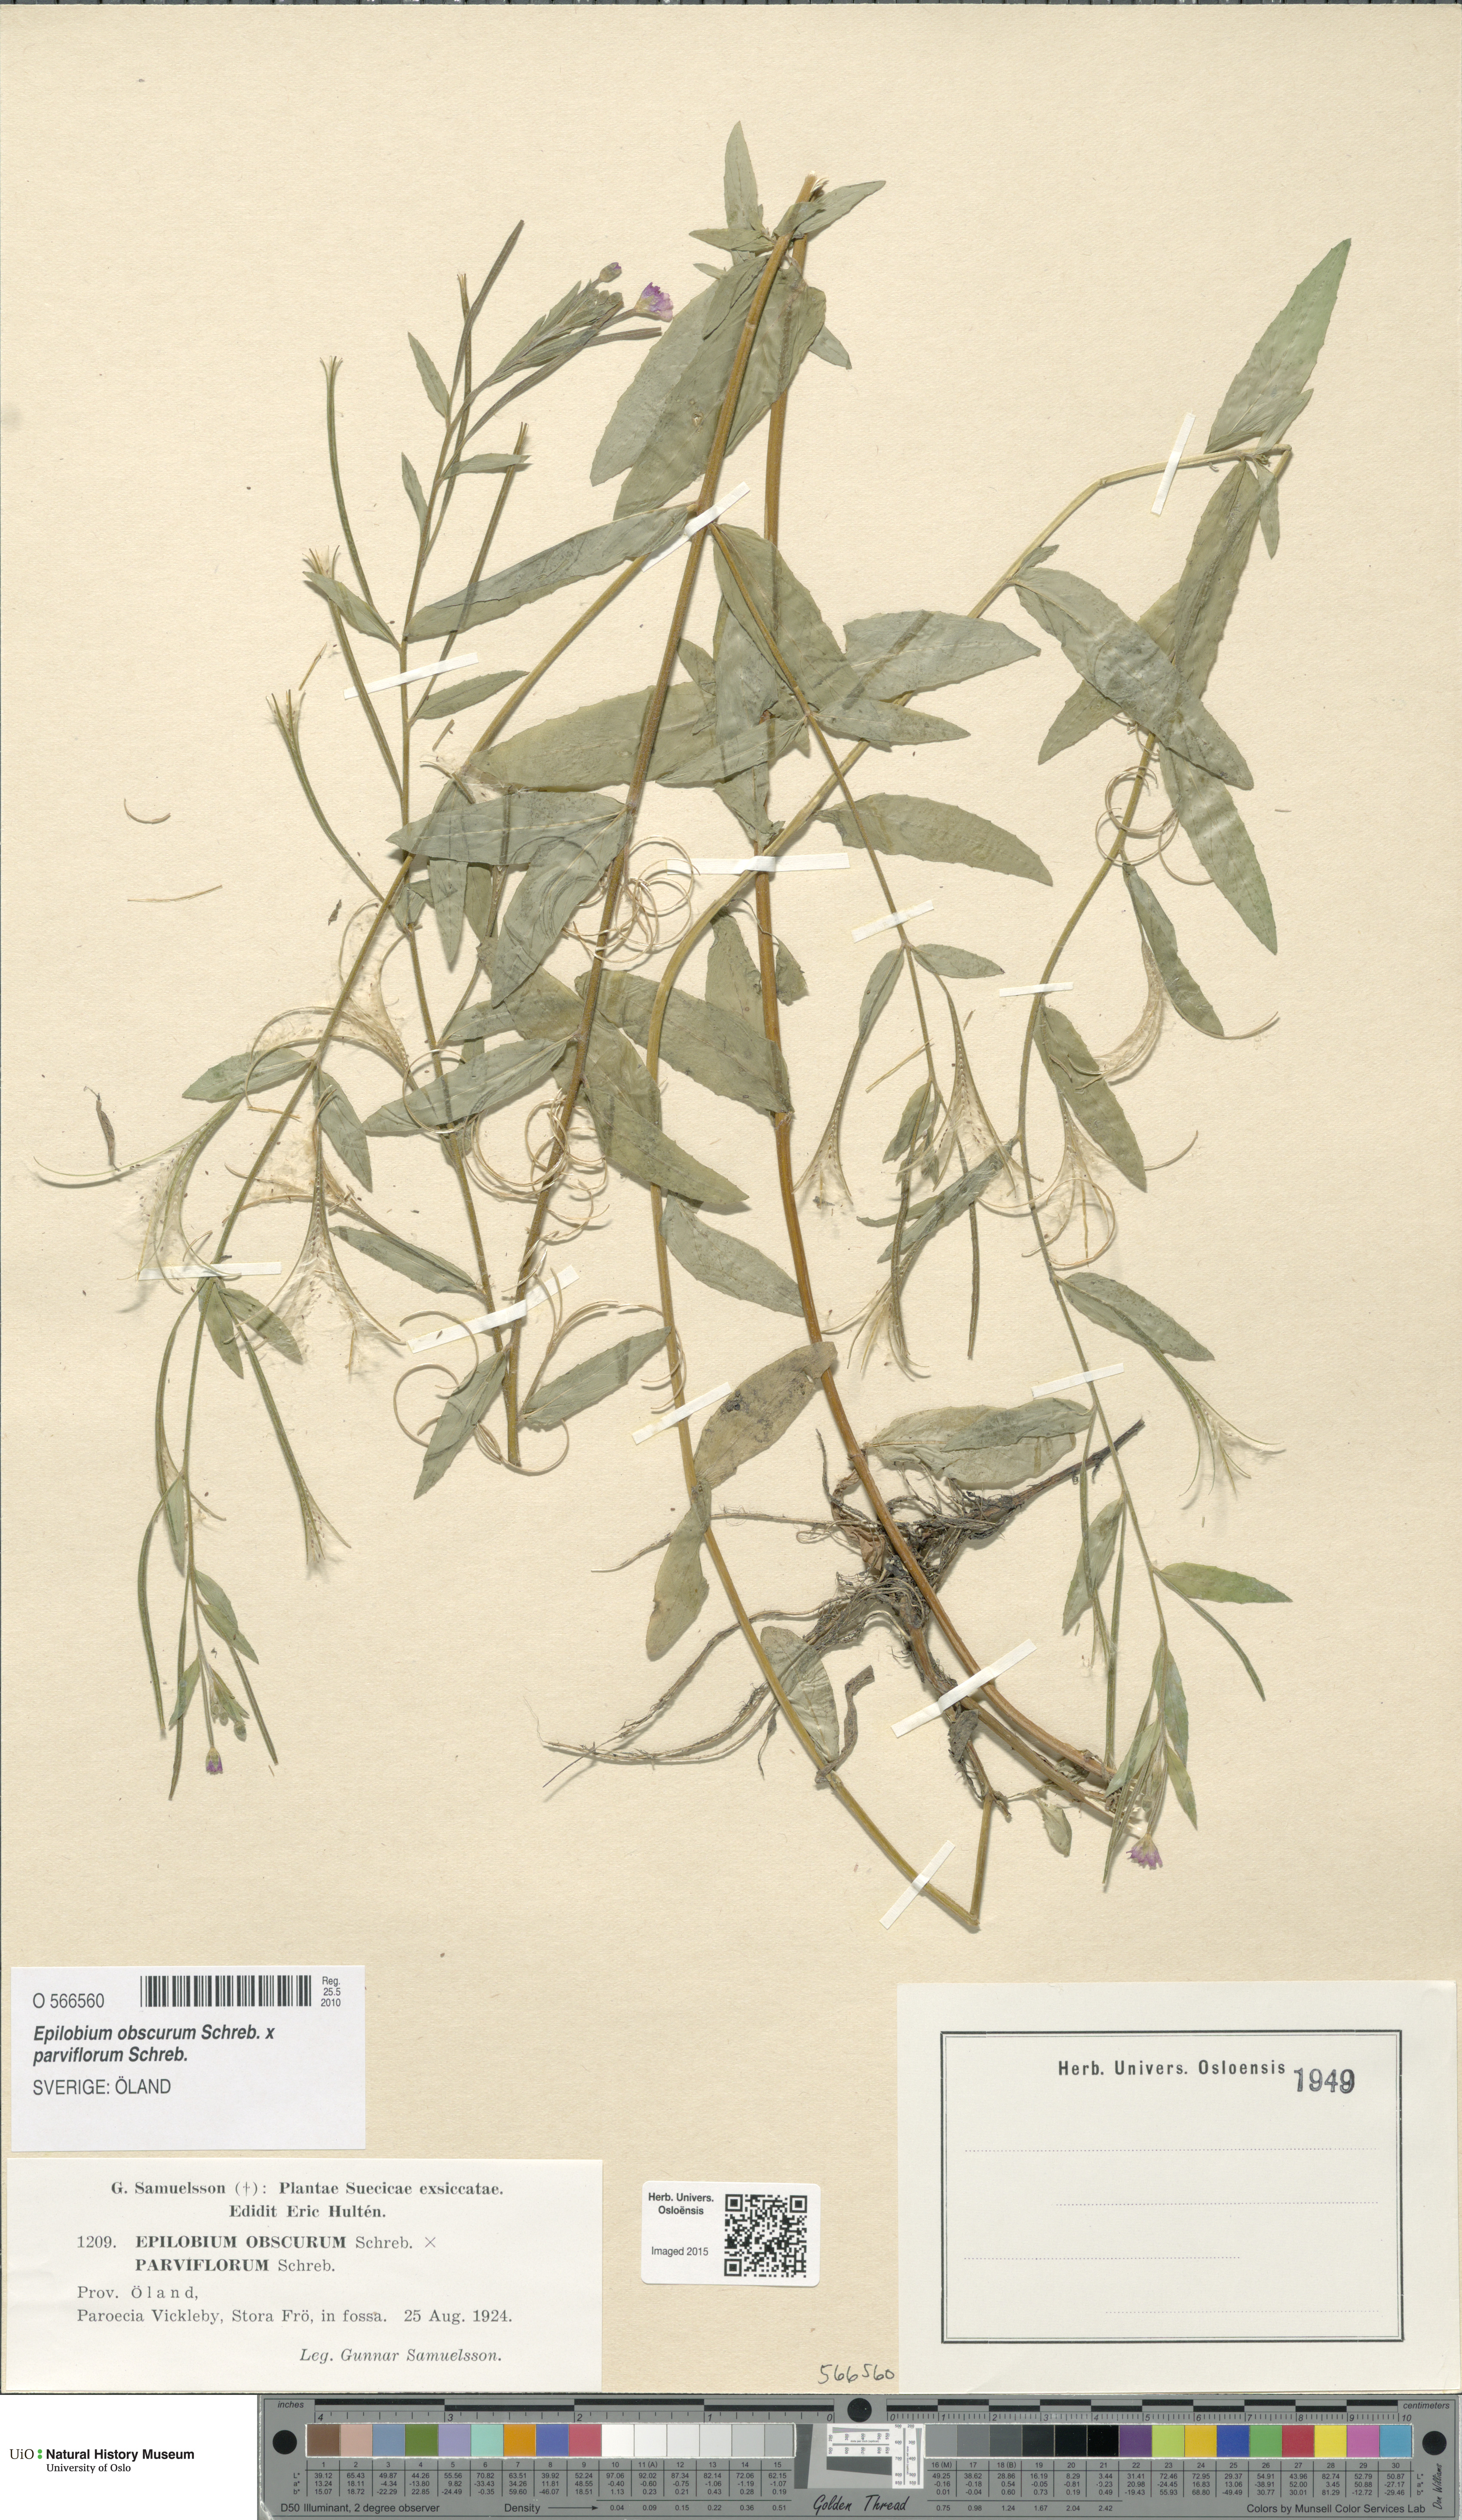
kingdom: Plantae
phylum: Tracheophyta
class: Magnoliopsida
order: Myrtales
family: Onagraceae
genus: Epilobium
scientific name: Epilobium
